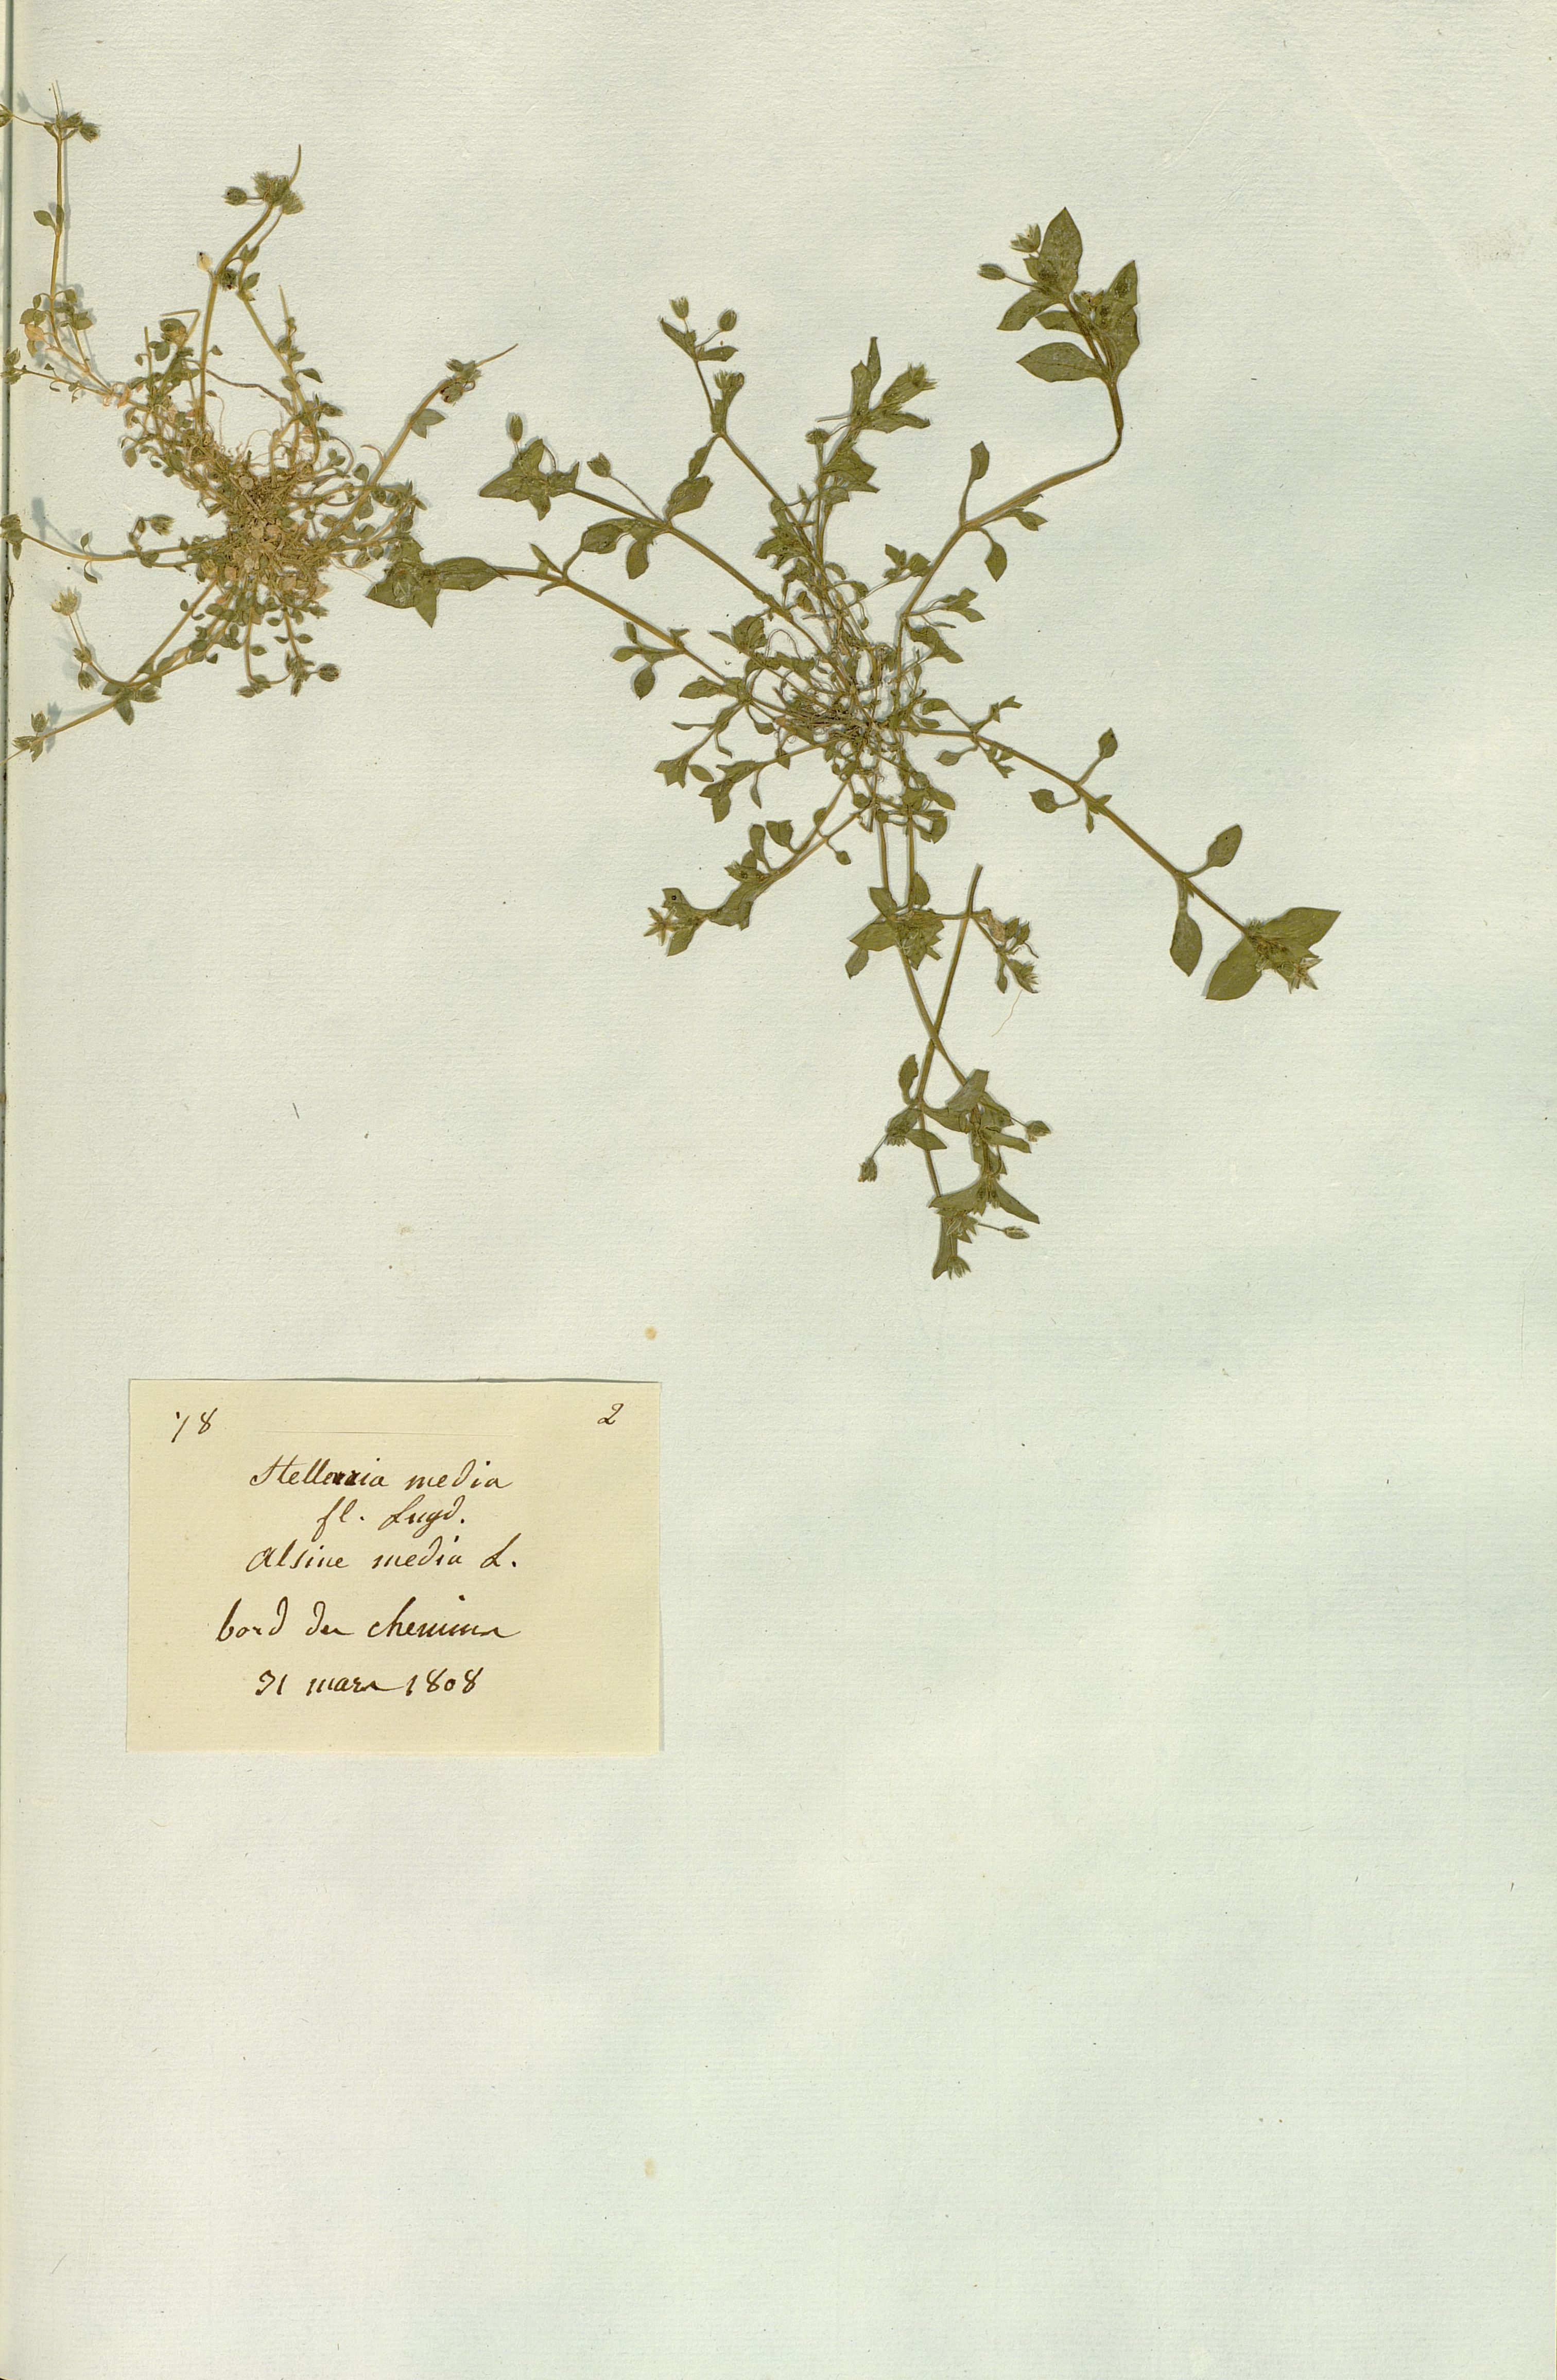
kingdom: Plantae
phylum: Tracheophyta
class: Magnoliopsida
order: Caryophyllales
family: Caryophyllaceae
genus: Stellaria
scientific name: Stellaria media
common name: Common chickweed
